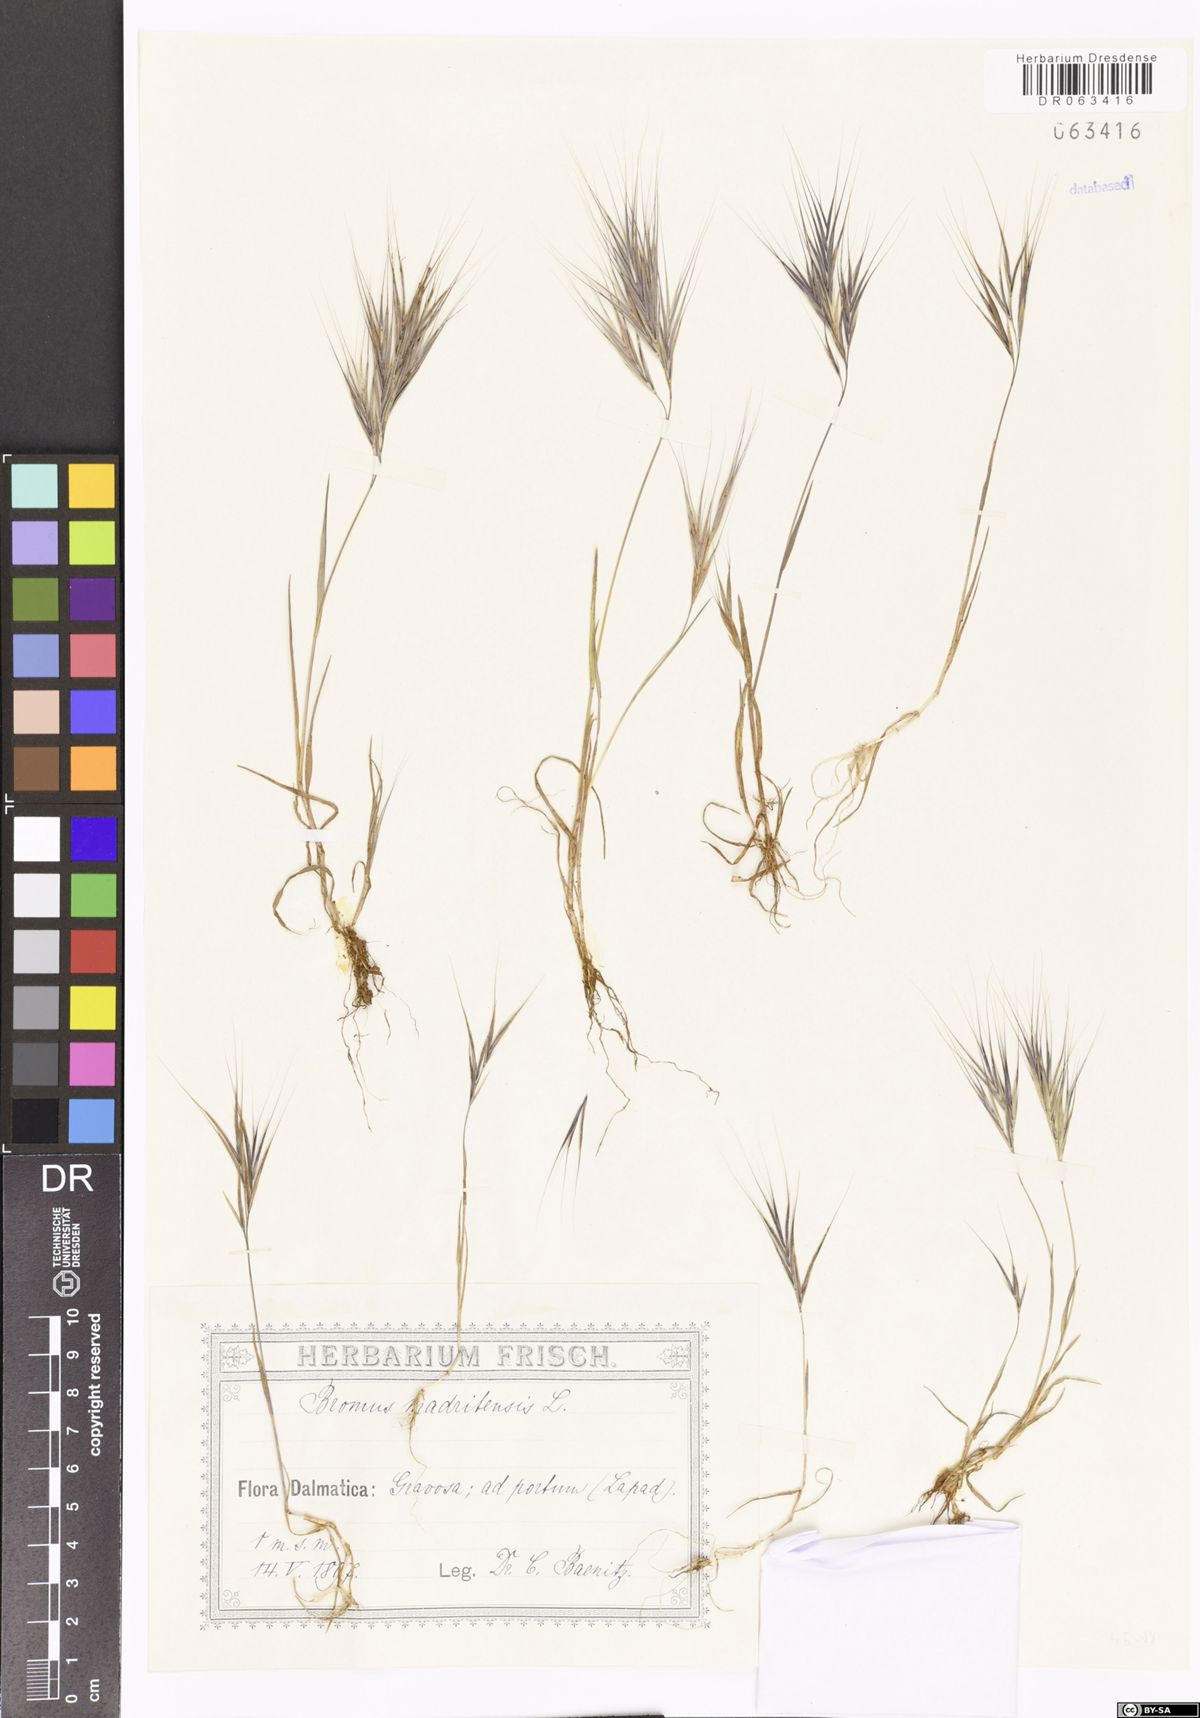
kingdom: Plantae
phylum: Tracheophyta
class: Liliopsida
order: Poales
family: Poaceae
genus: Bromus
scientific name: Bromus madritensis
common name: Compact brome
